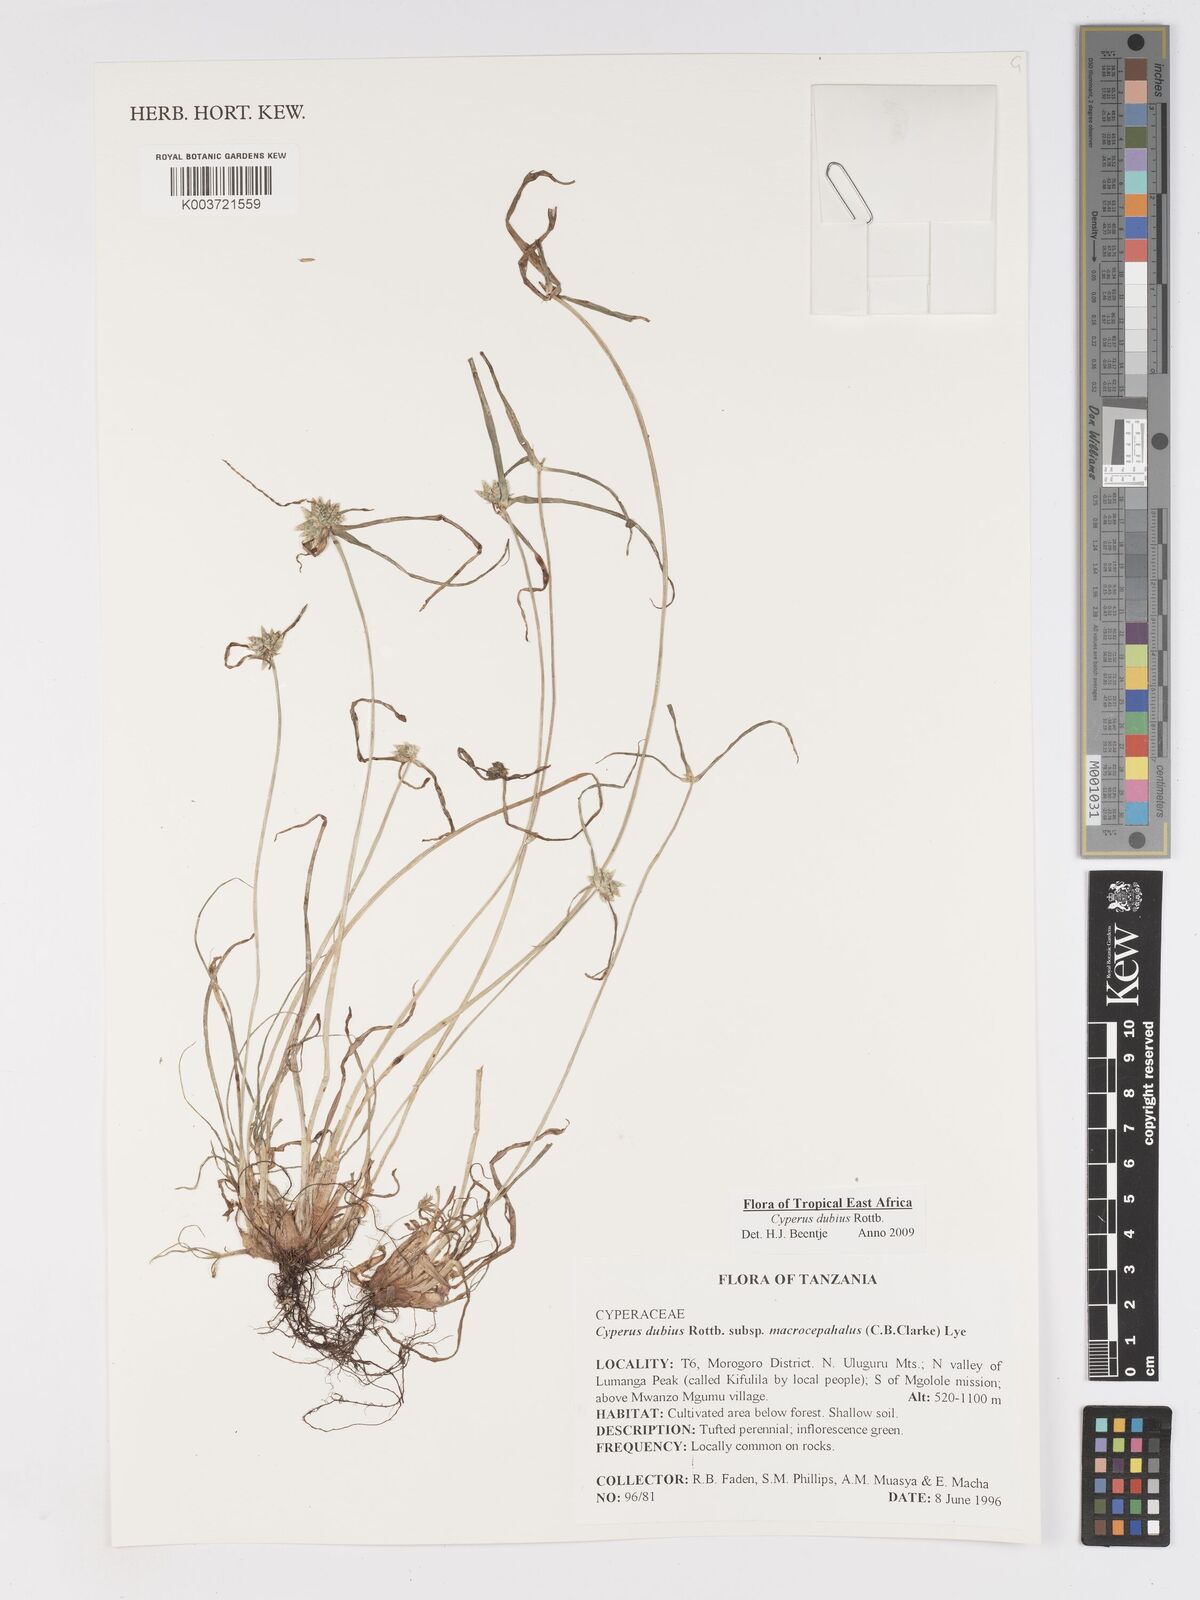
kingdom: Plantae
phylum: Tracheophyta
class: Liliopsida
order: Poales
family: Cyperaceae
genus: Cyperus
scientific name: Cyperus dubius
